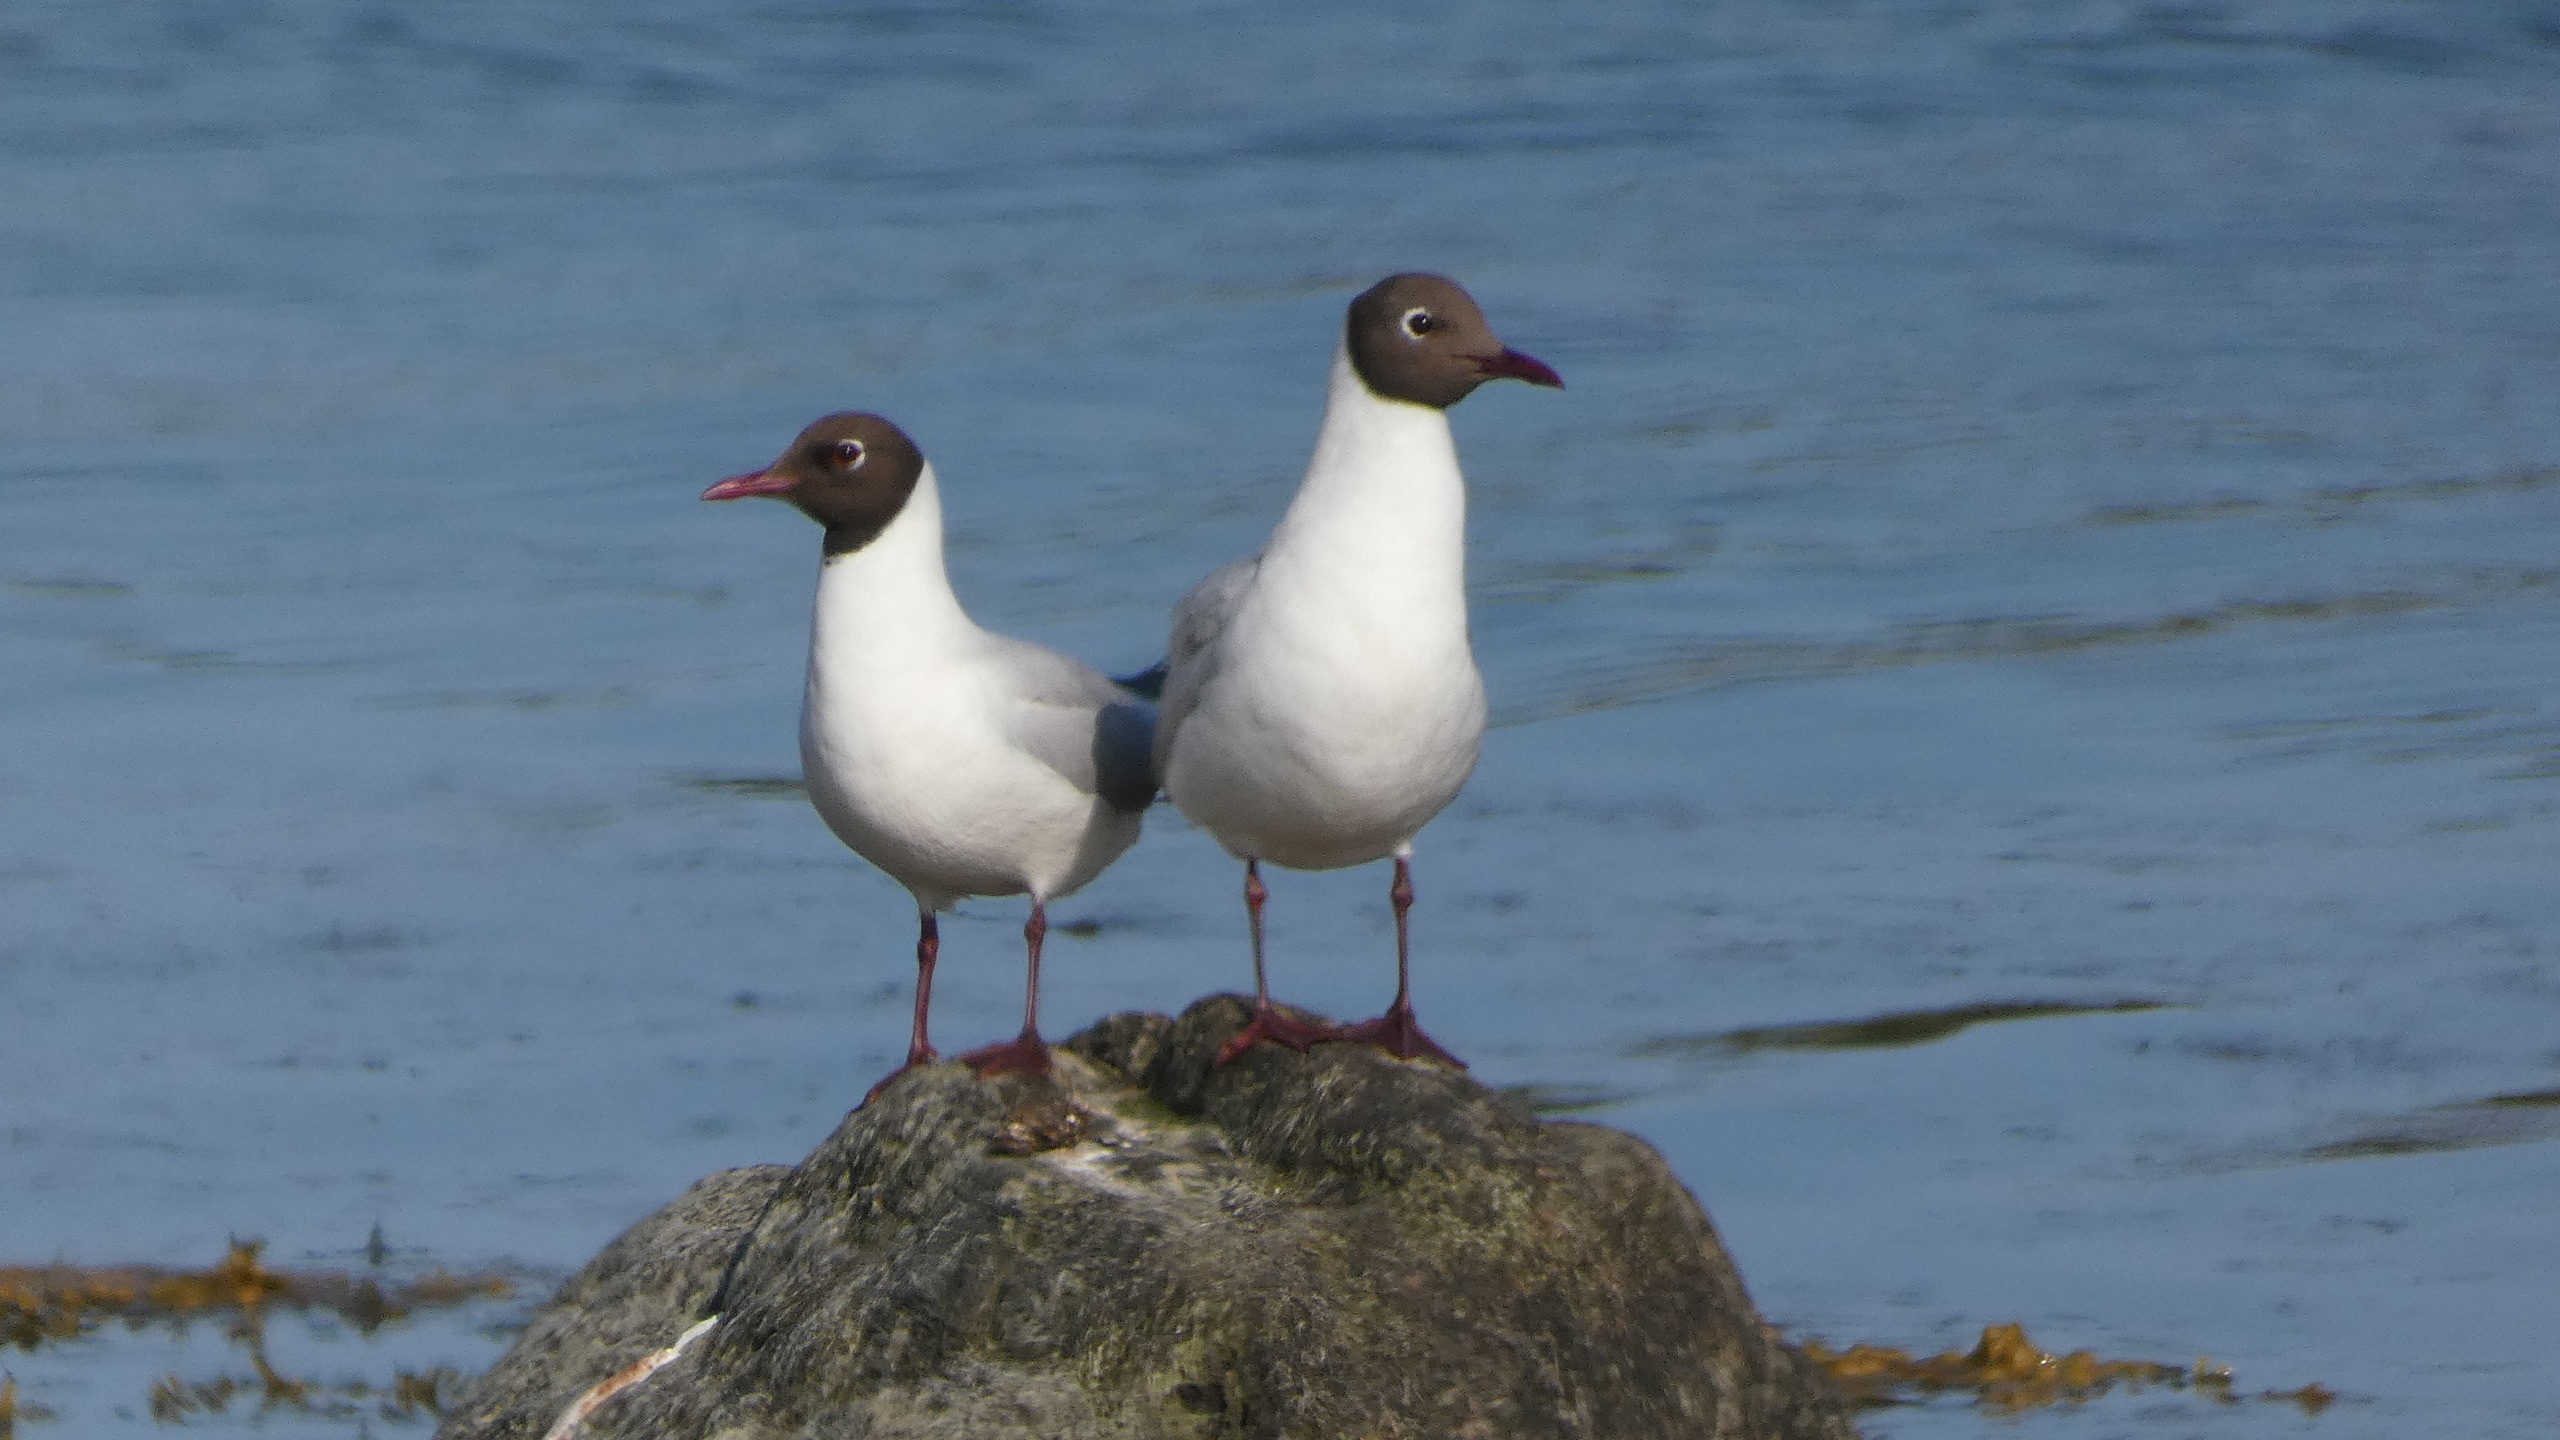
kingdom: Animalia
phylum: Chordata
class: Aves
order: Charadriiformes
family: Laridae
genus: Chroicocephalus
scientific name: Chroicocephalus ridibundus
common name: Hættemåge
